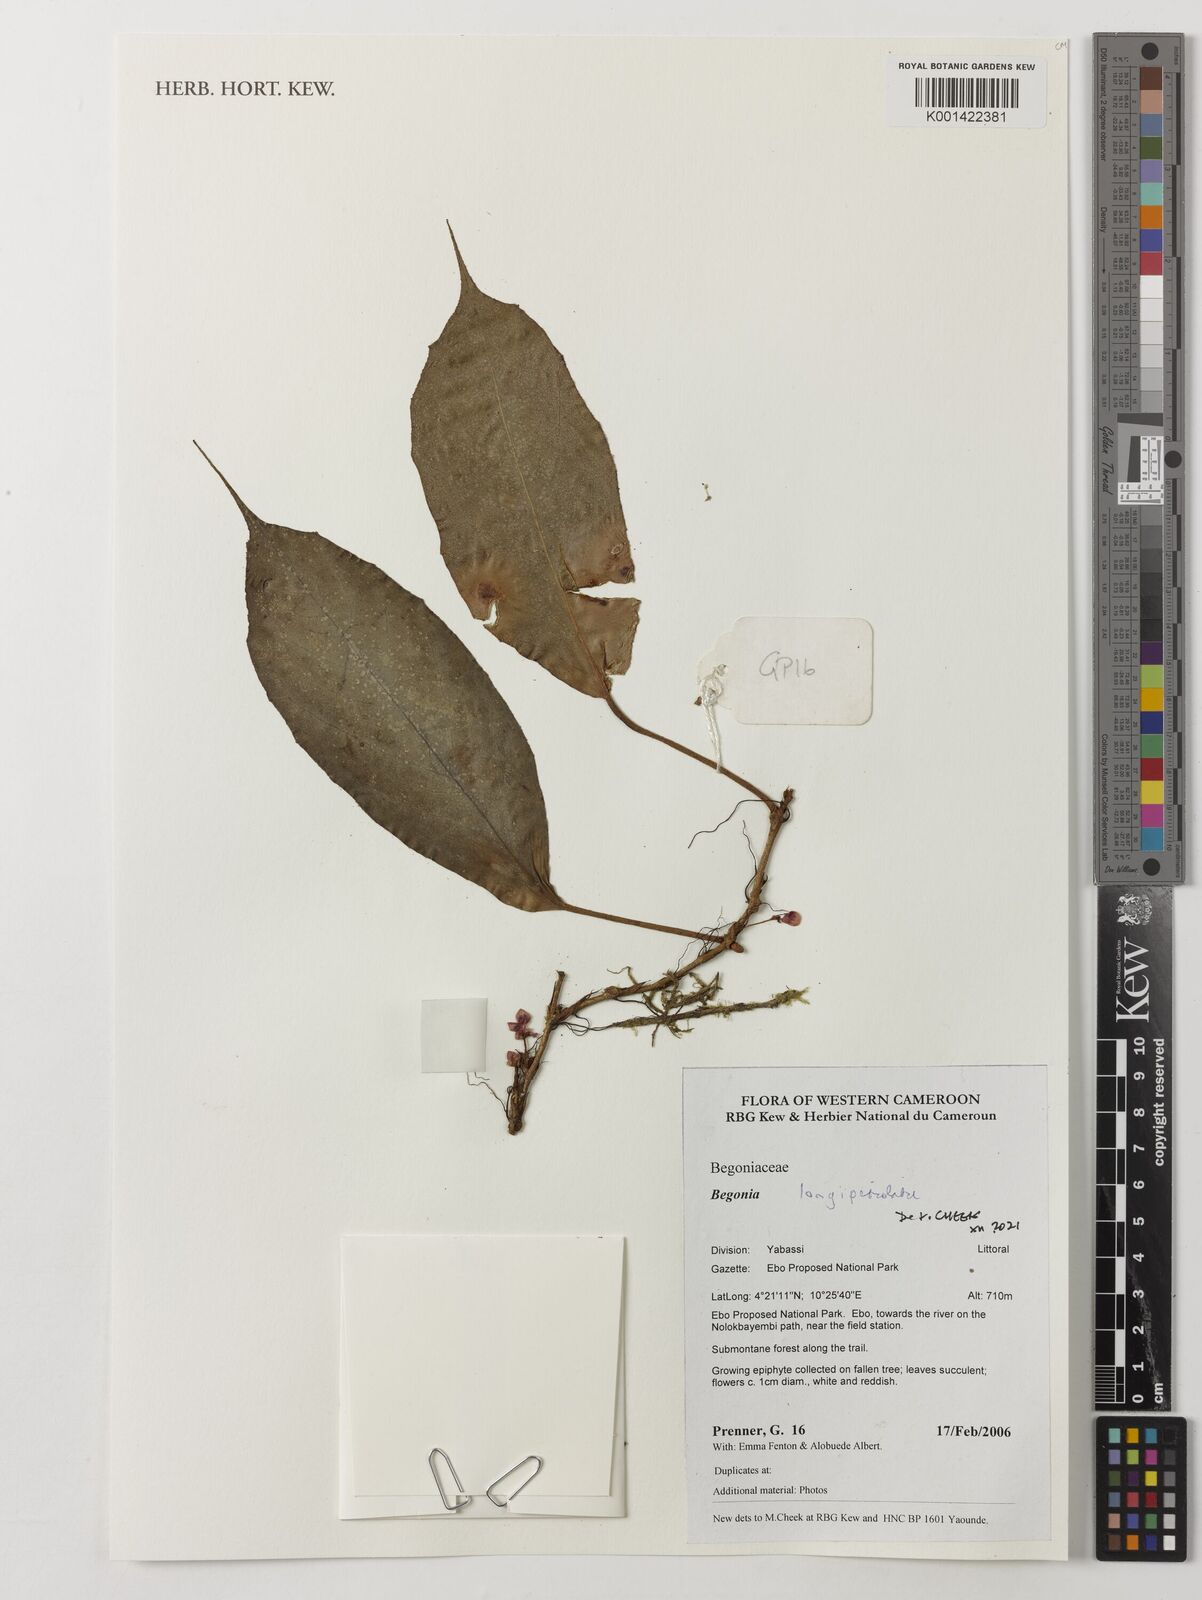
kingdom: Plantae
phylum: Tracheophyta
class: Magnoliopsida
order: Cucurbitales
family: Begoniaceae
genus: Begonia
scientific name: Begonia longipetiolata
